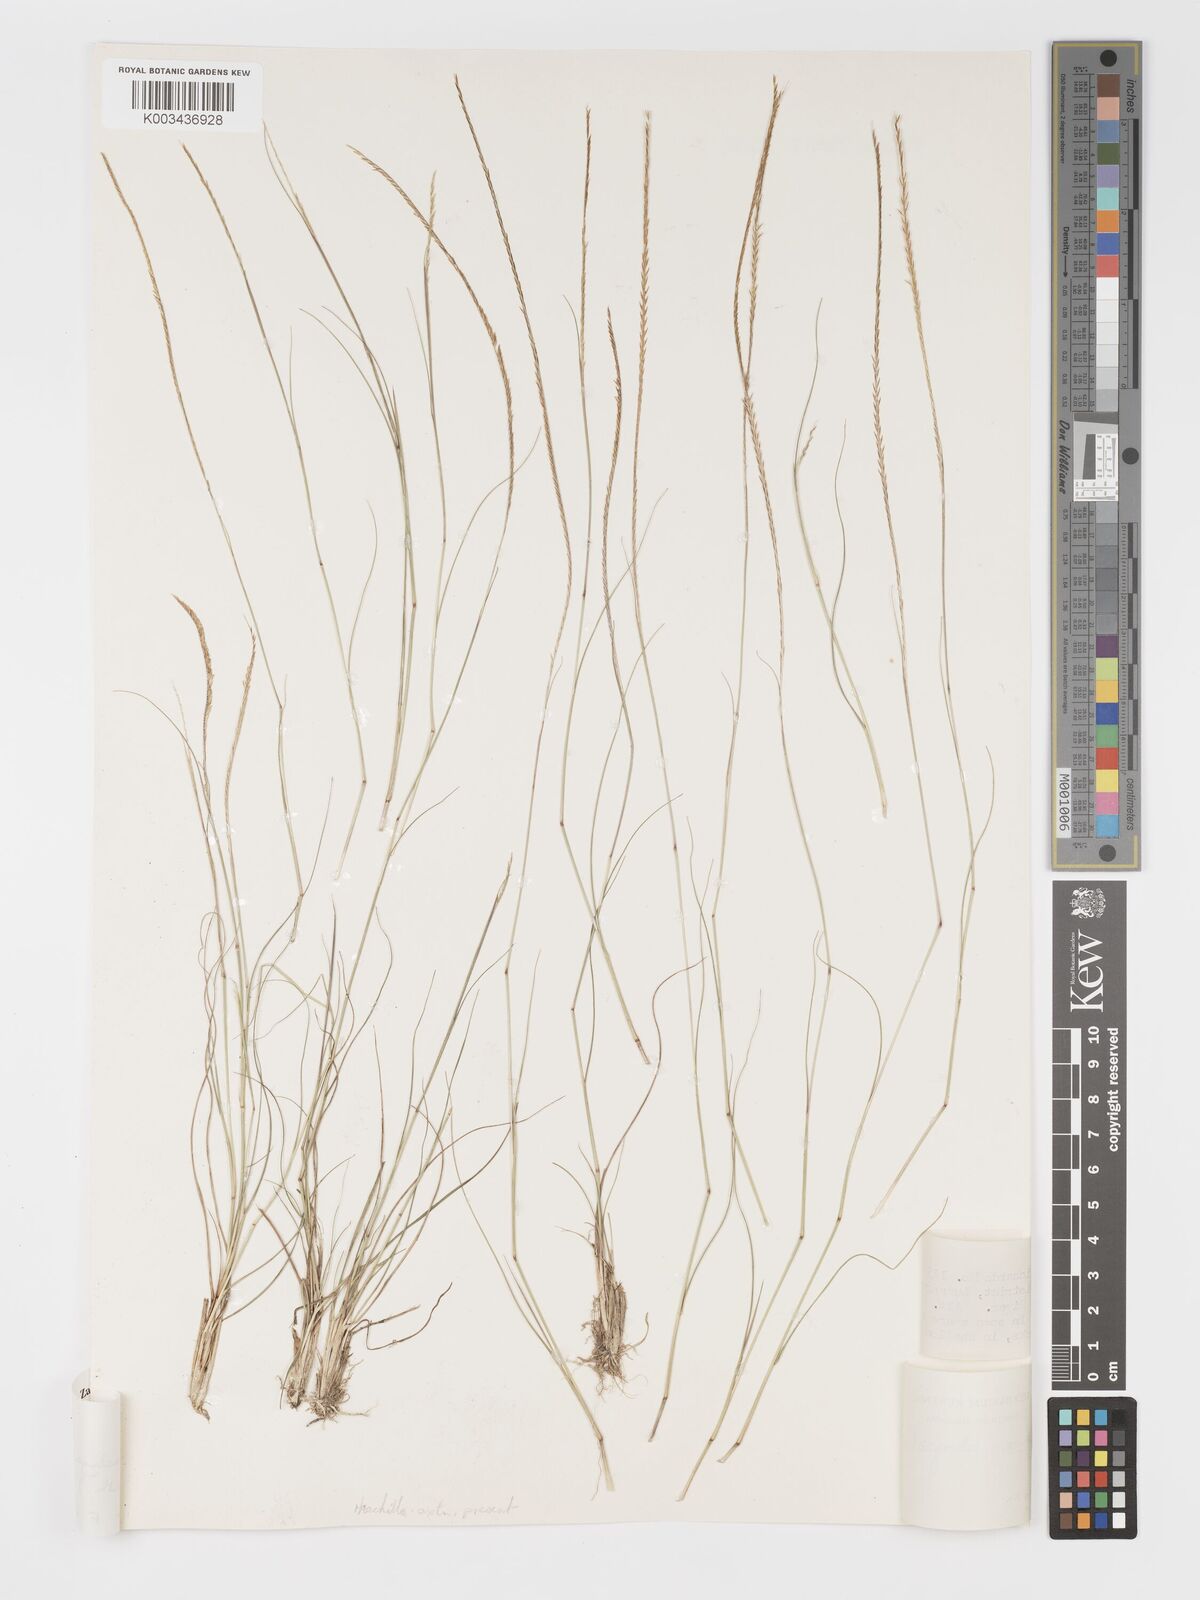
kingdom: Plantae
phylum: Tracheophyta
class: Liliopsida
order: Poales
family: Poaceae
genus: Micrachne
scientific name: Micrachne obtusiflora
